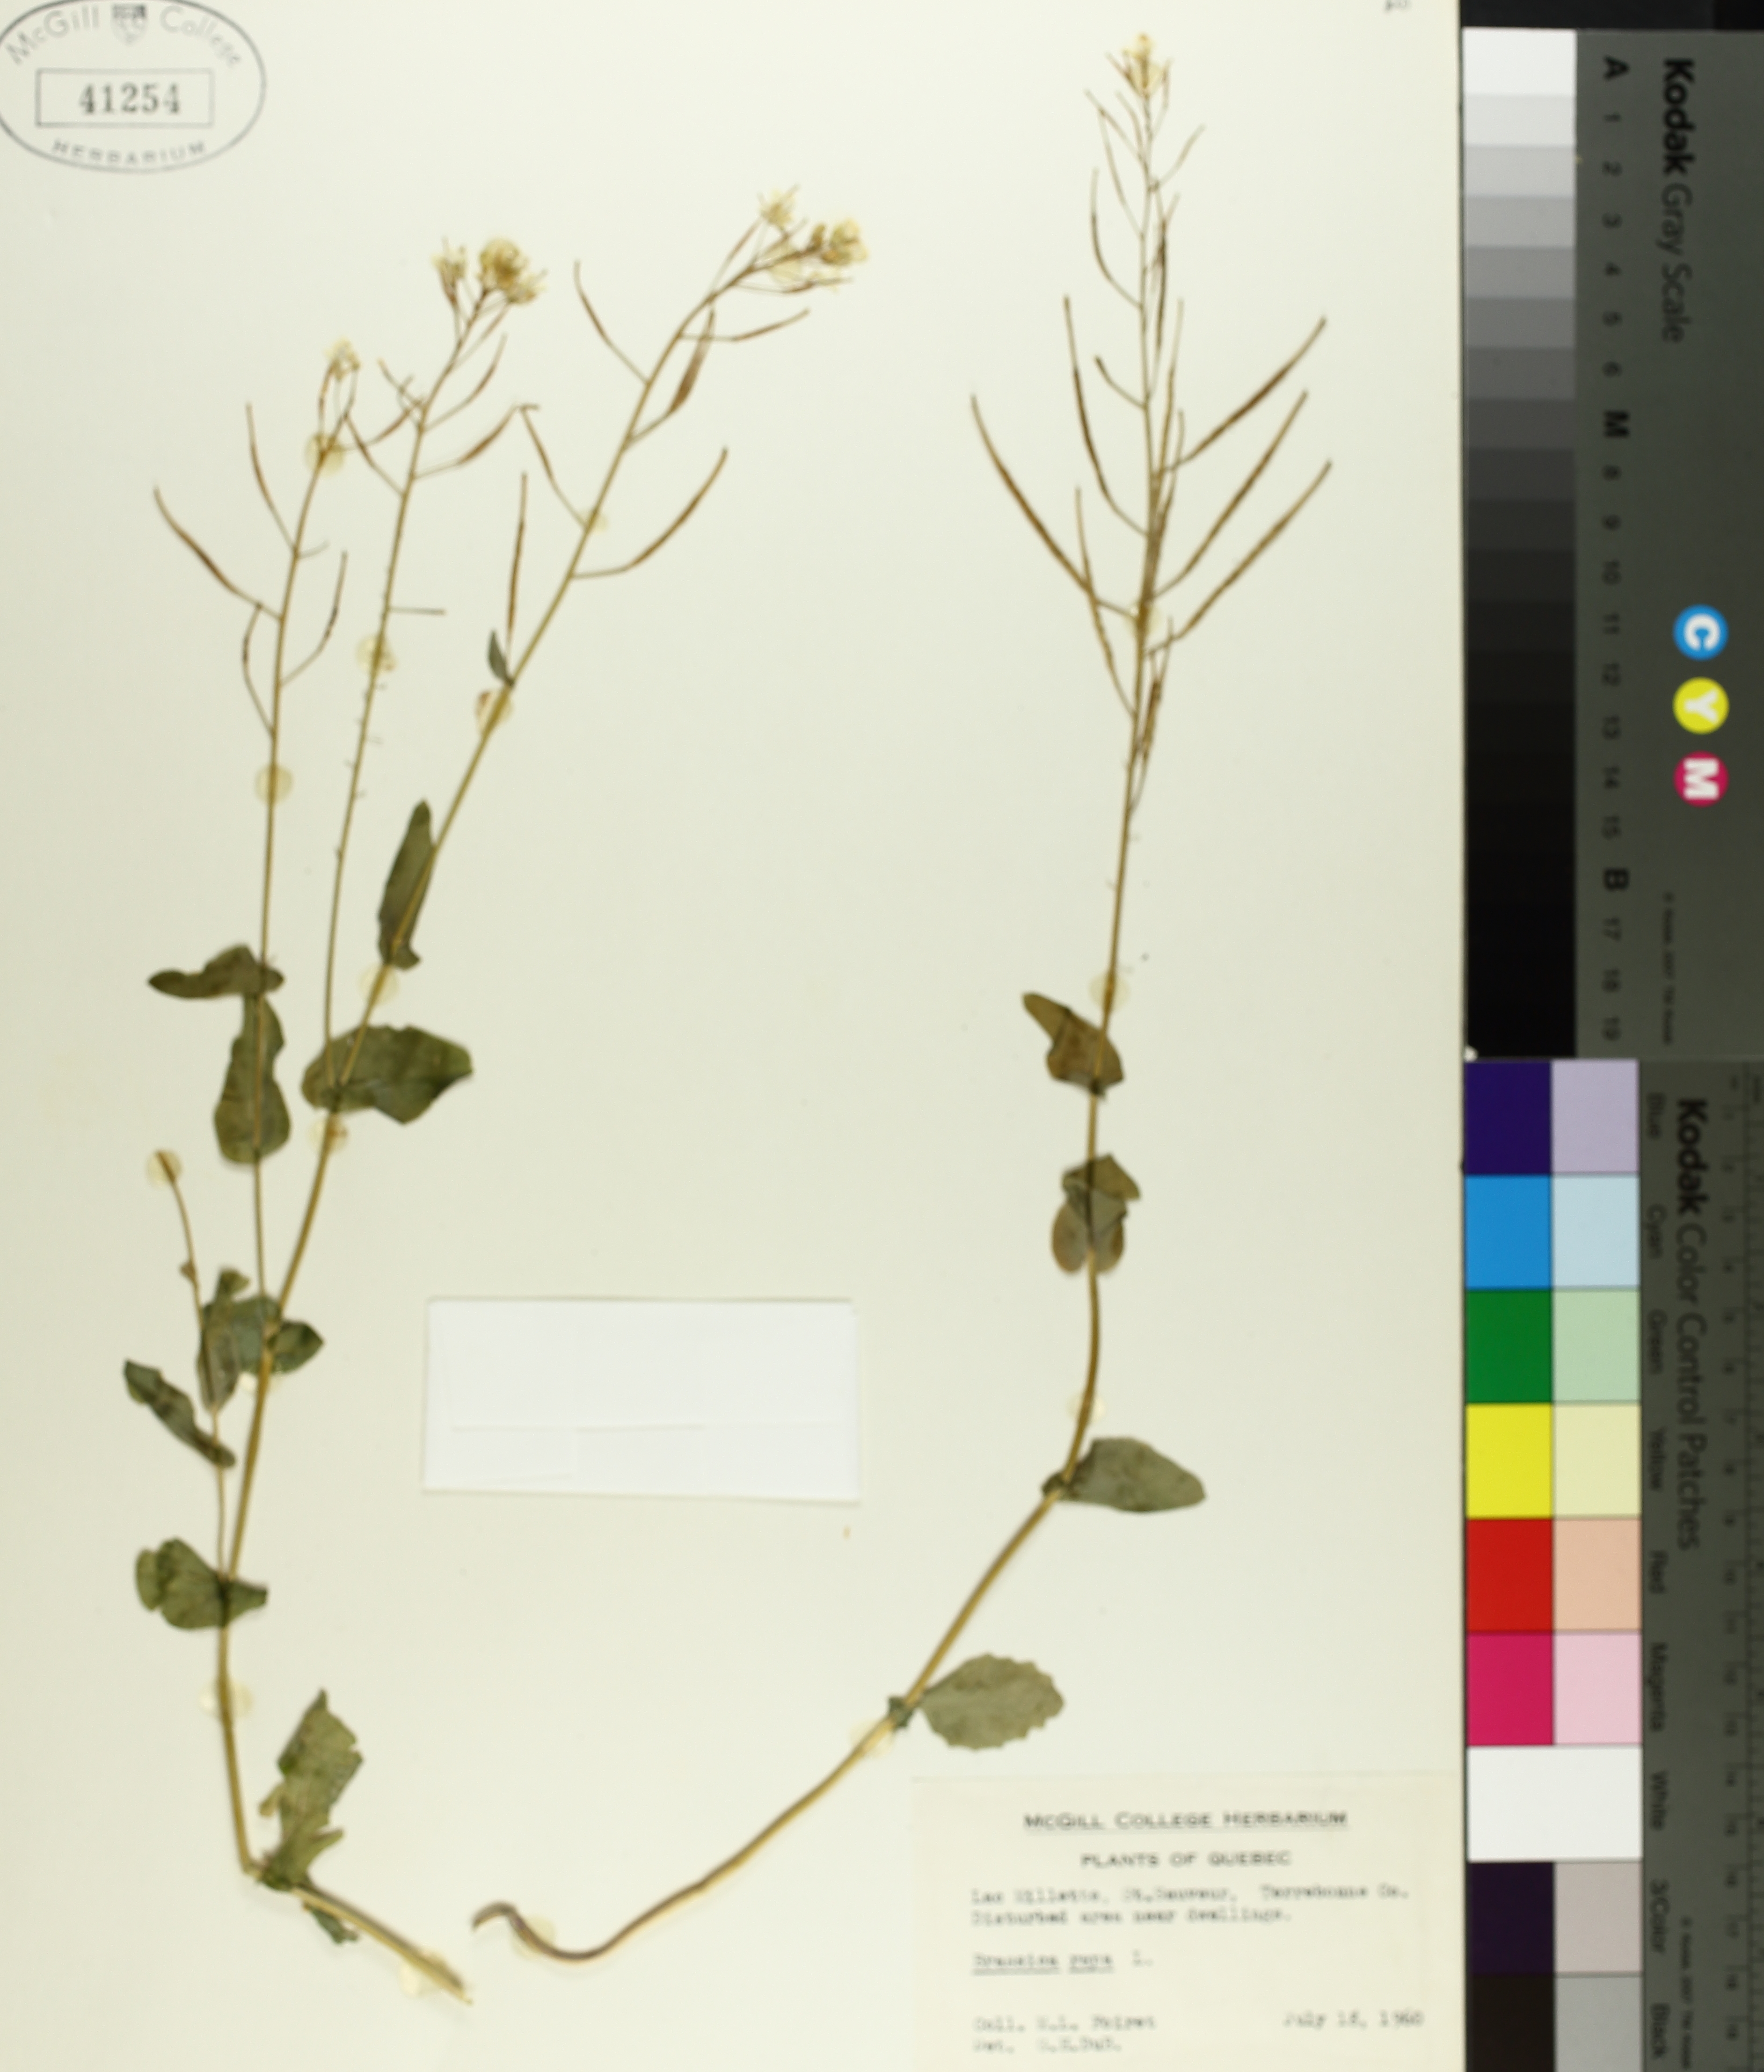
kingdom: Plantae
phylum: Tracheophyta
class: Magnoliopsida
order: Brassicales
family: Brassicaceae
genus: Brassica
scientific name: Brassica rapa
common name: Field mustard
